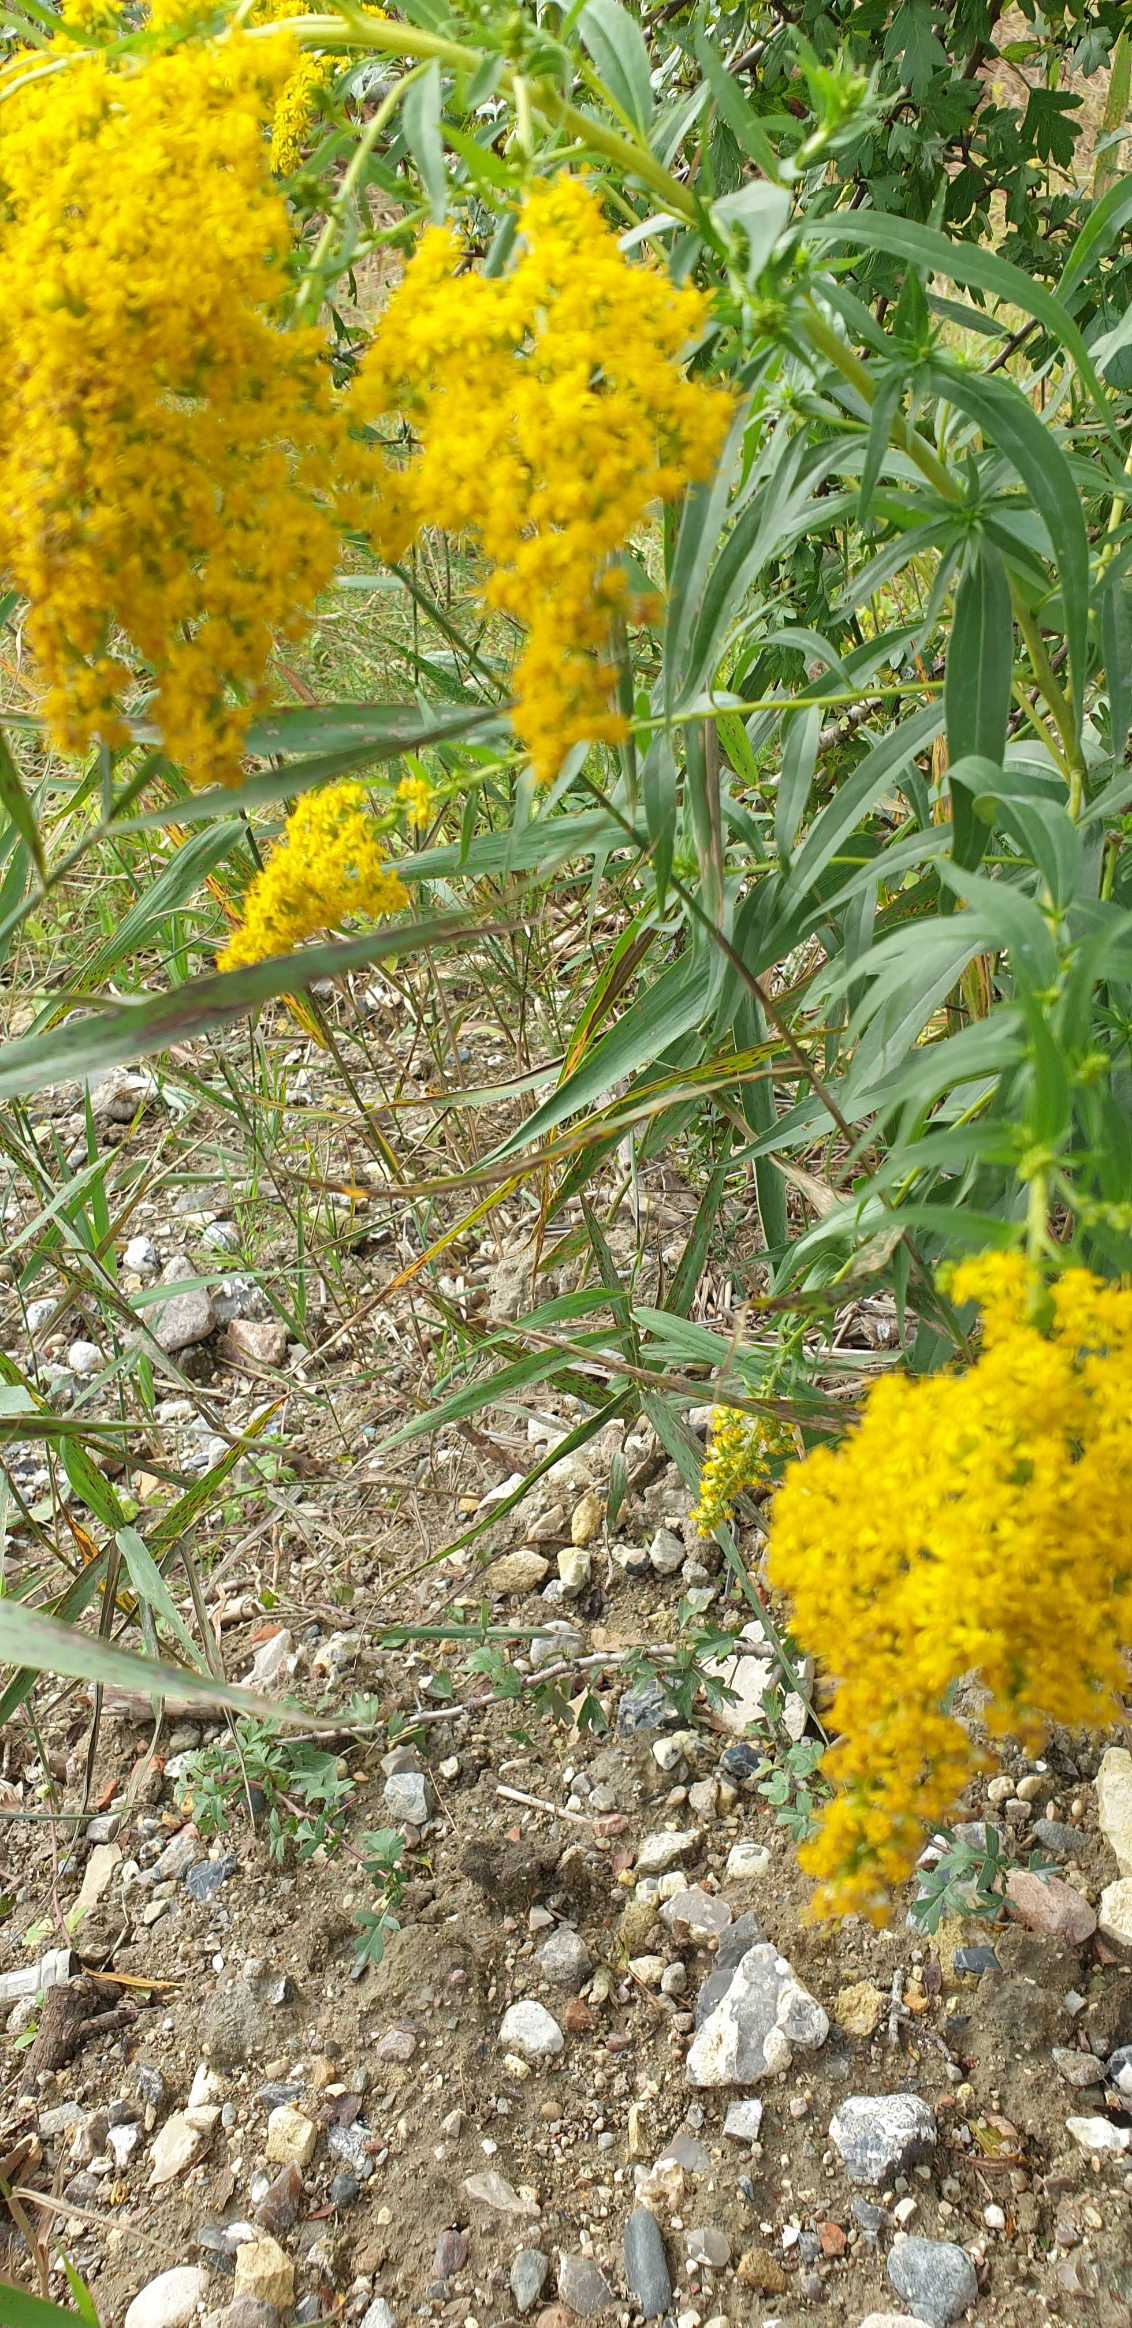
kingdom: Plantae
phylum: Tracheophyta
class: Magnoliopsida
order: Asterales
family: Asteraceae
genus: Solidago
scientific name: Solidago gigantea
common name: Sildig gyldenris
